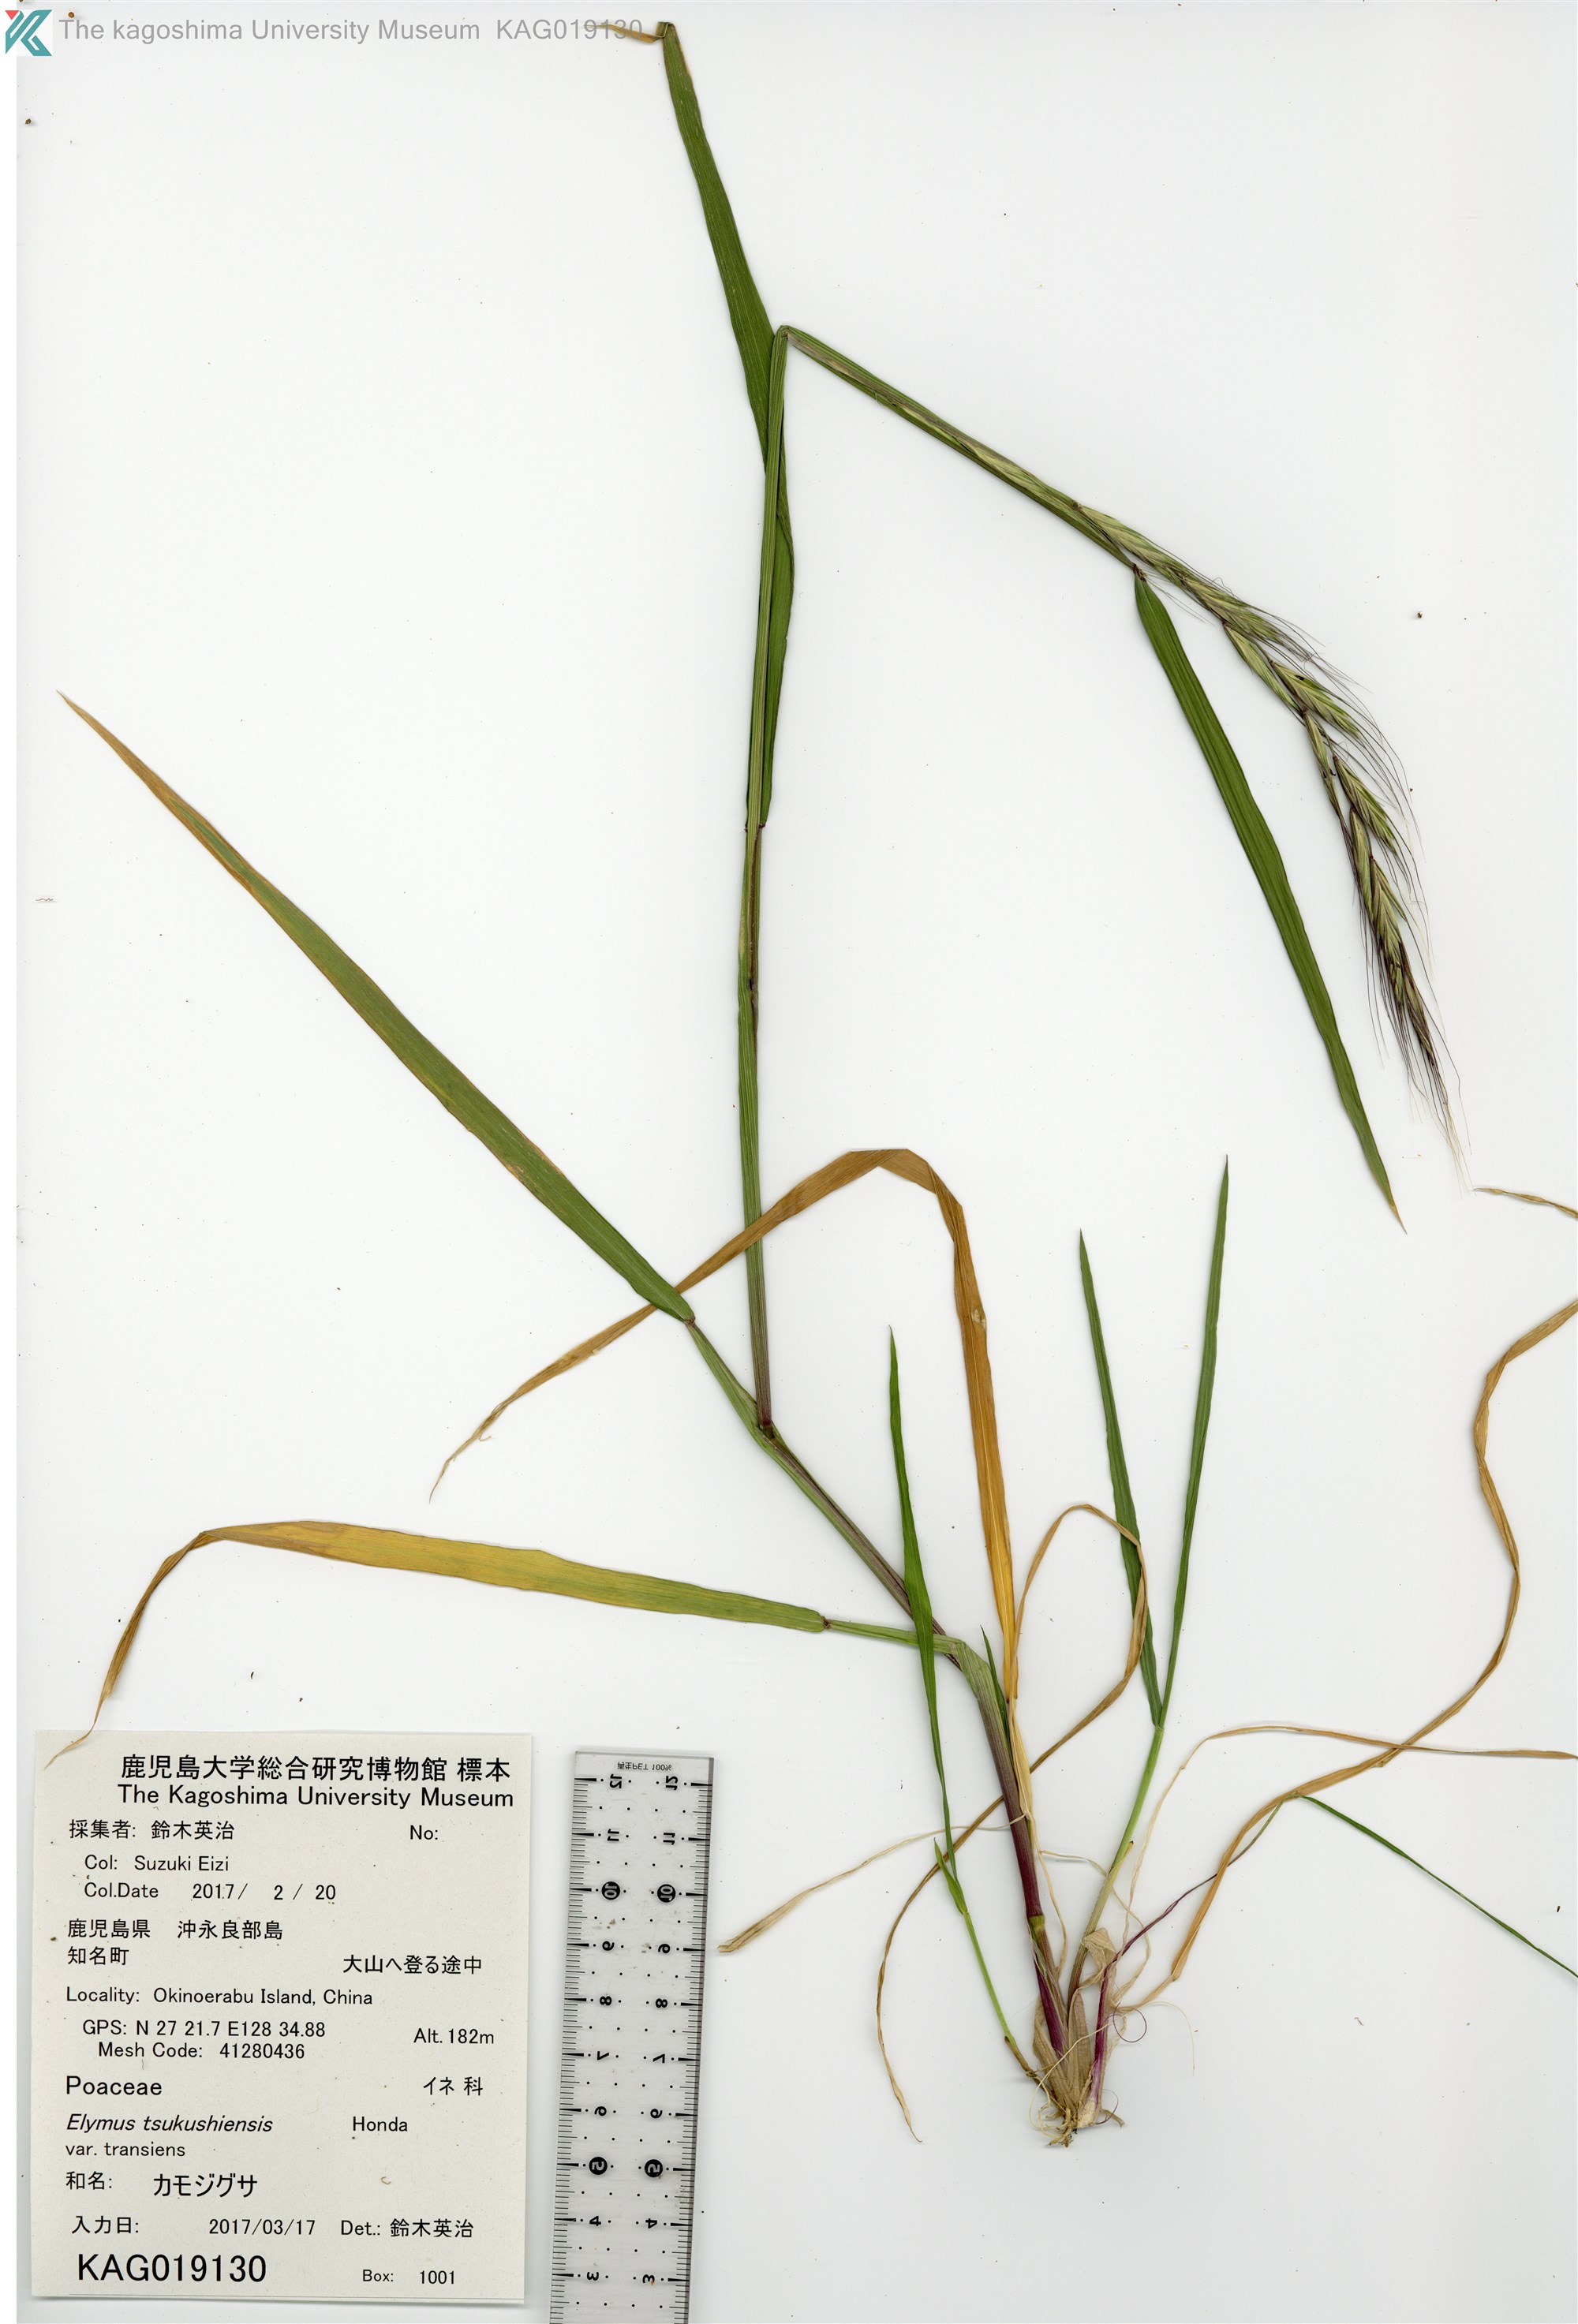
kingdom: Plantae
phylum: Tracheophyta
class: Liliopsida
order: Poales
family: Poaceae
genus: Elymus
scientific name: Elymus tsukushiensis
